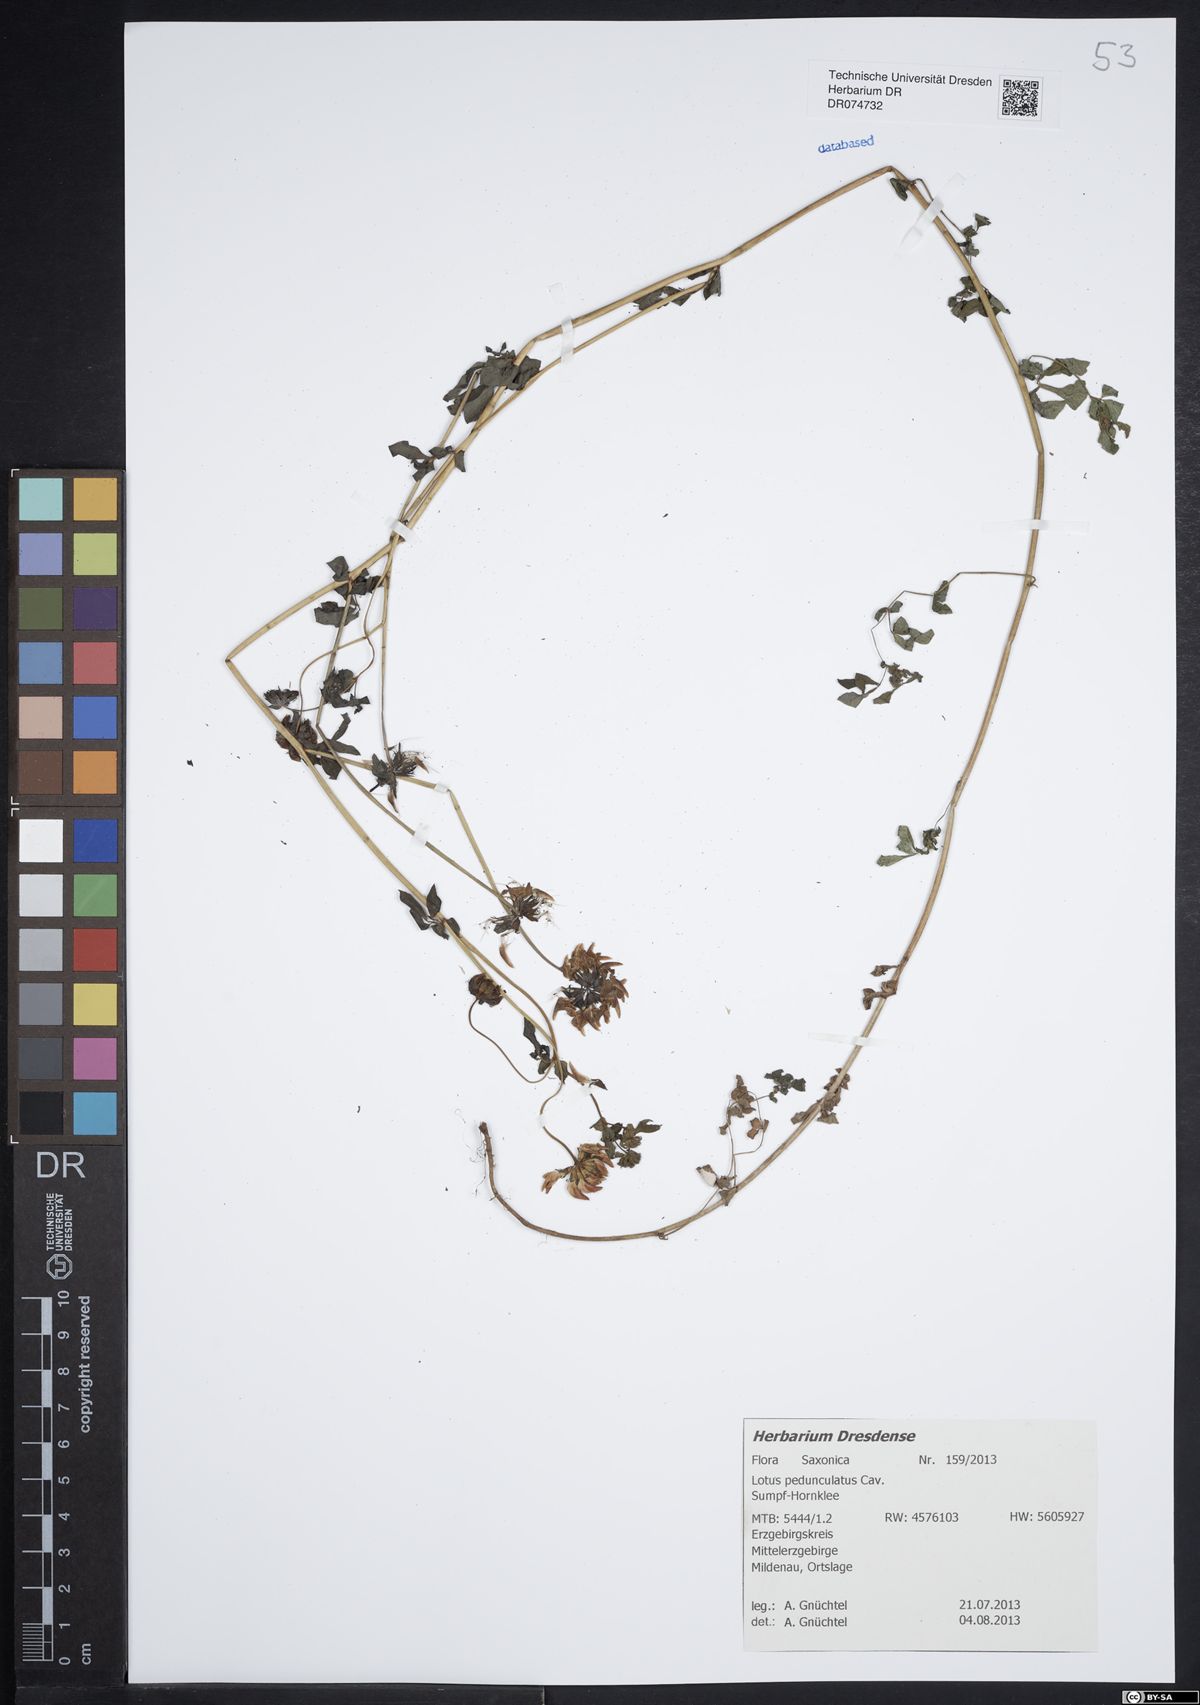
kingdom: Plantae
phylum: Tracheophyta
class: Magnoliopsida
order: Fabales
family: Fabaceae
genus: Lotus
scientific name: Lotus pedunculatus
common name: Greater birdsfoot-trefoil
